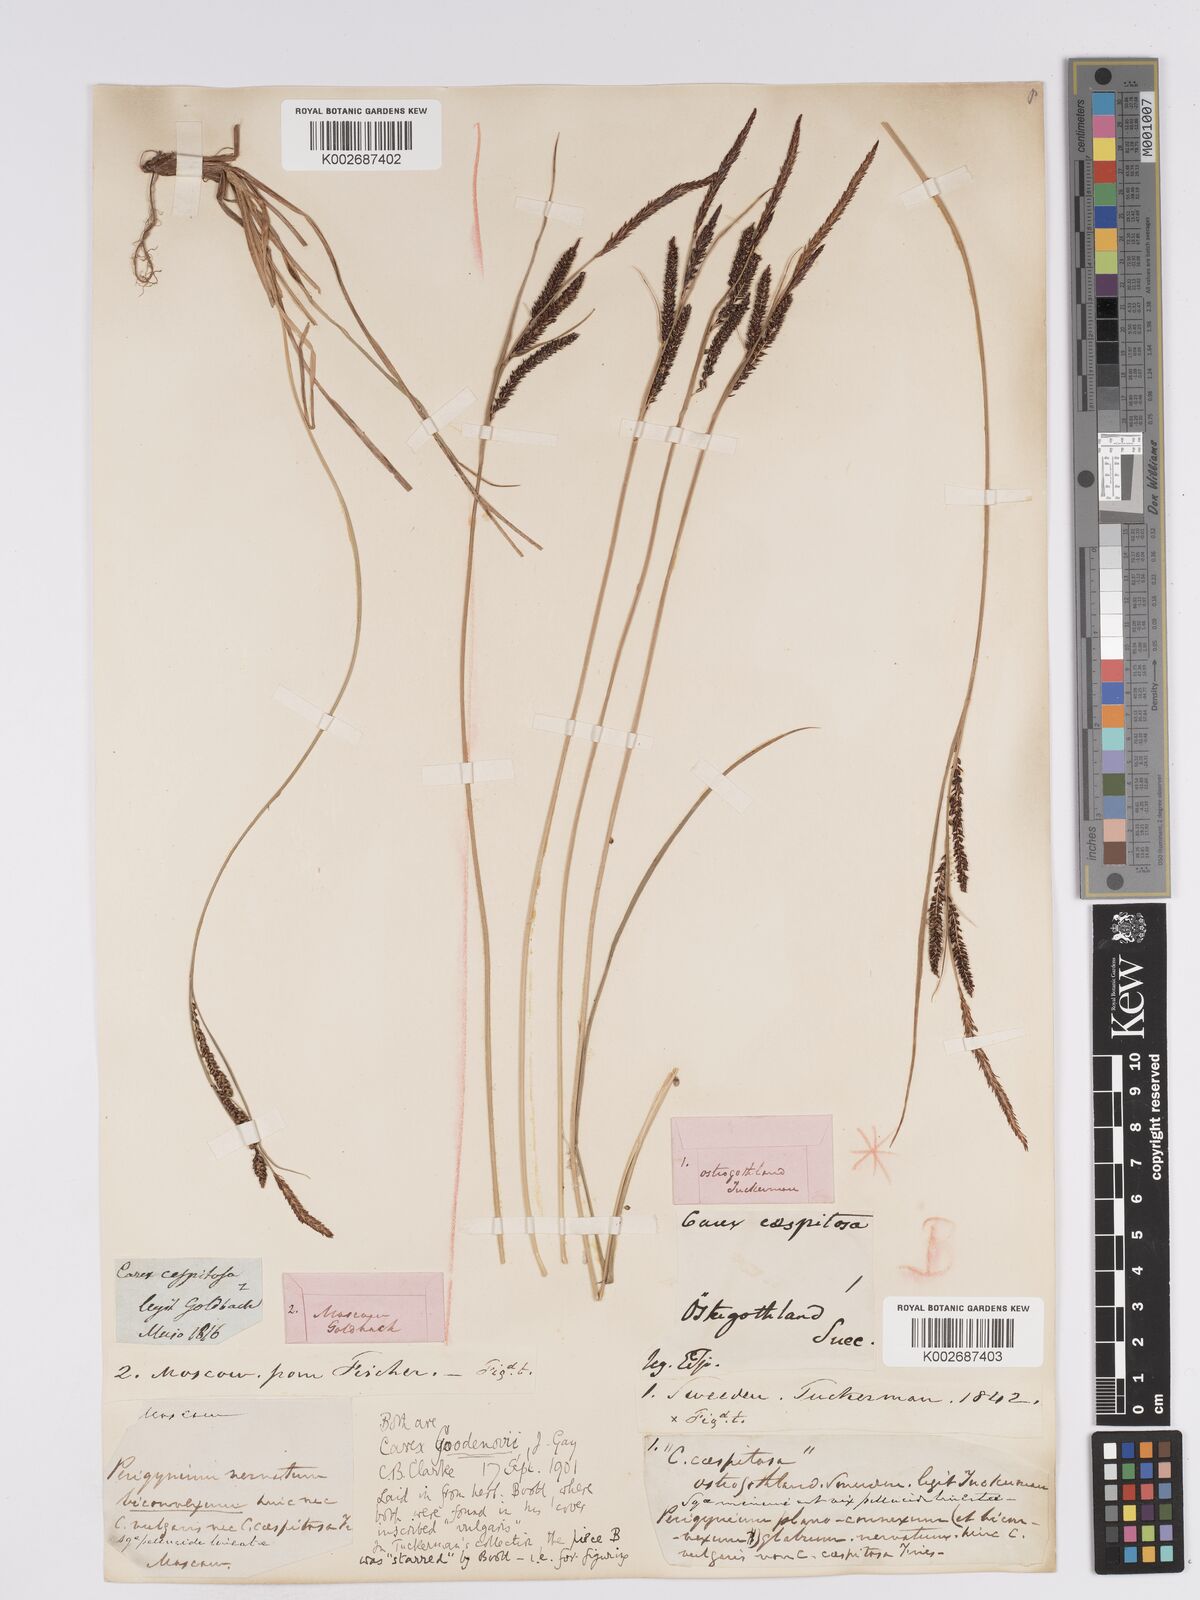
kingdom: Plantae
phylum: Tracheophyta
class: Liliopsida
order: Poales
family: Cyperaceae
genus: Carex
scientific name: Carex nigra
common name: Common sedge
